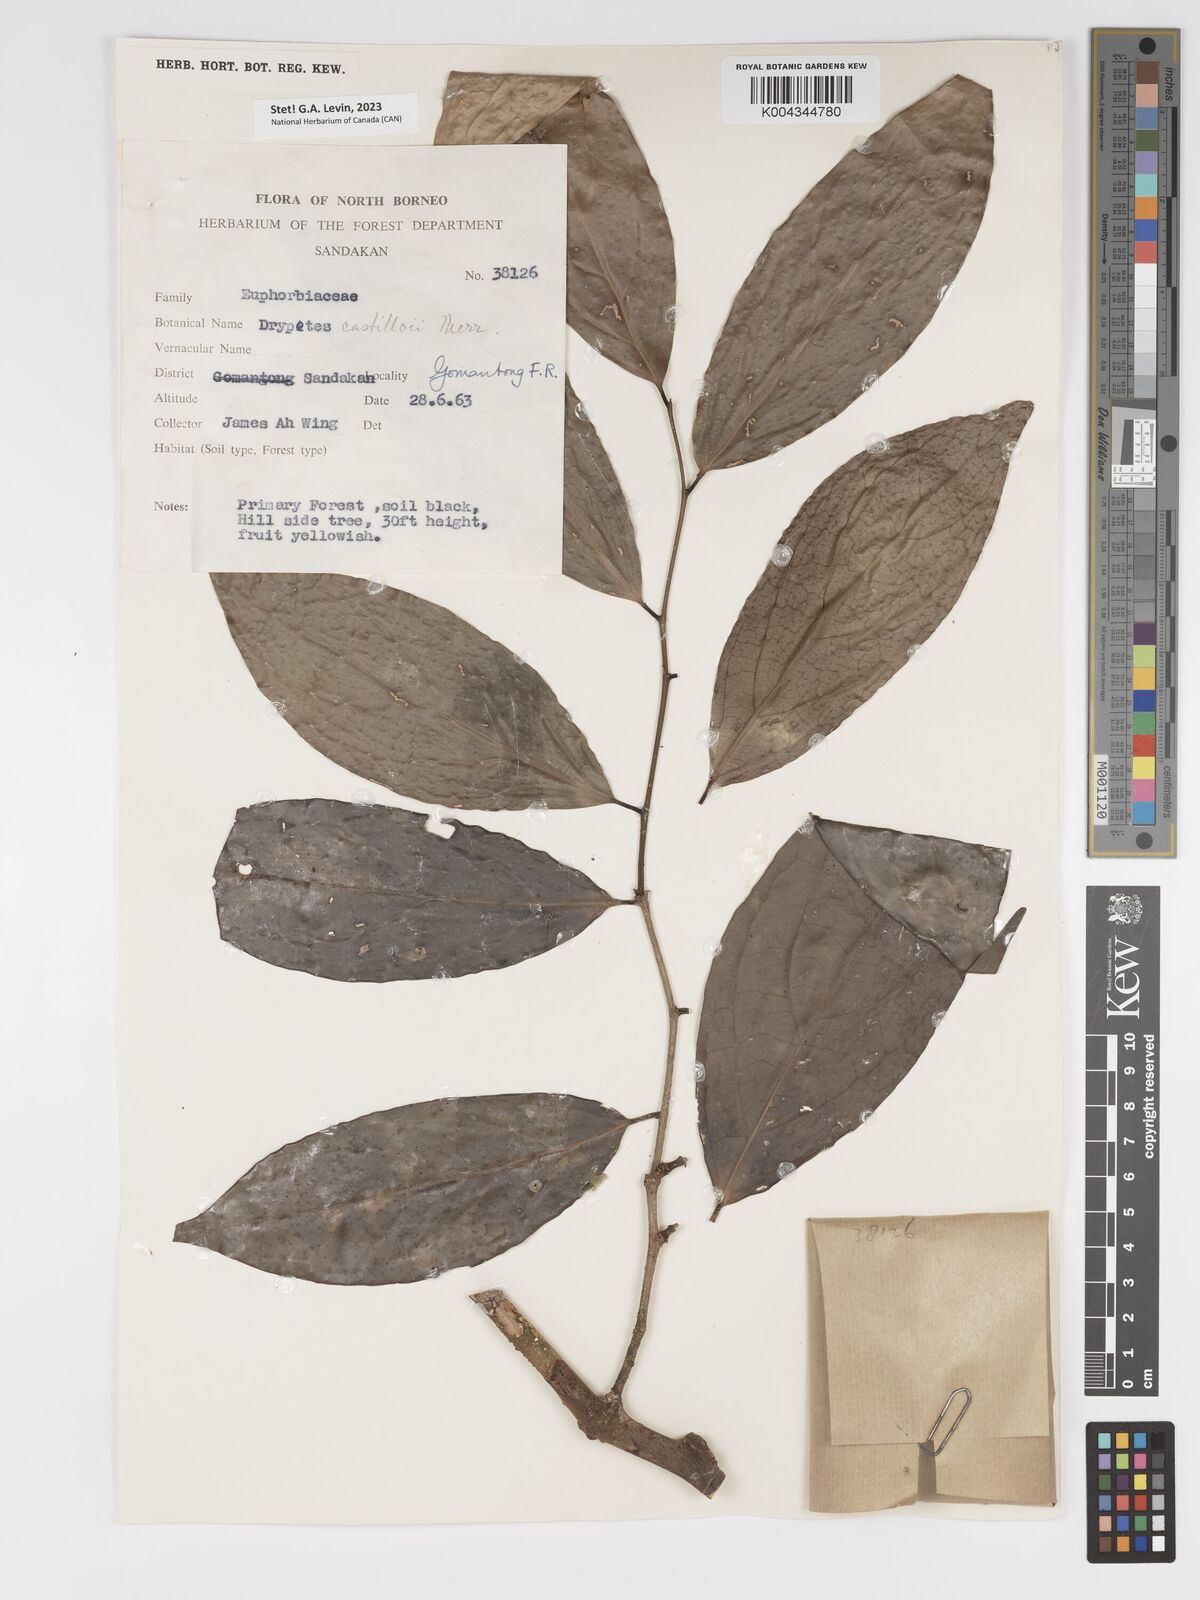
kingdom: Plantae
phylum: Tracheophyta
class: Magnoliopsida
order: Malpighiales
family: Putranjivaceae
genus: Drypetes
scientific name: Drypetes castilloi
